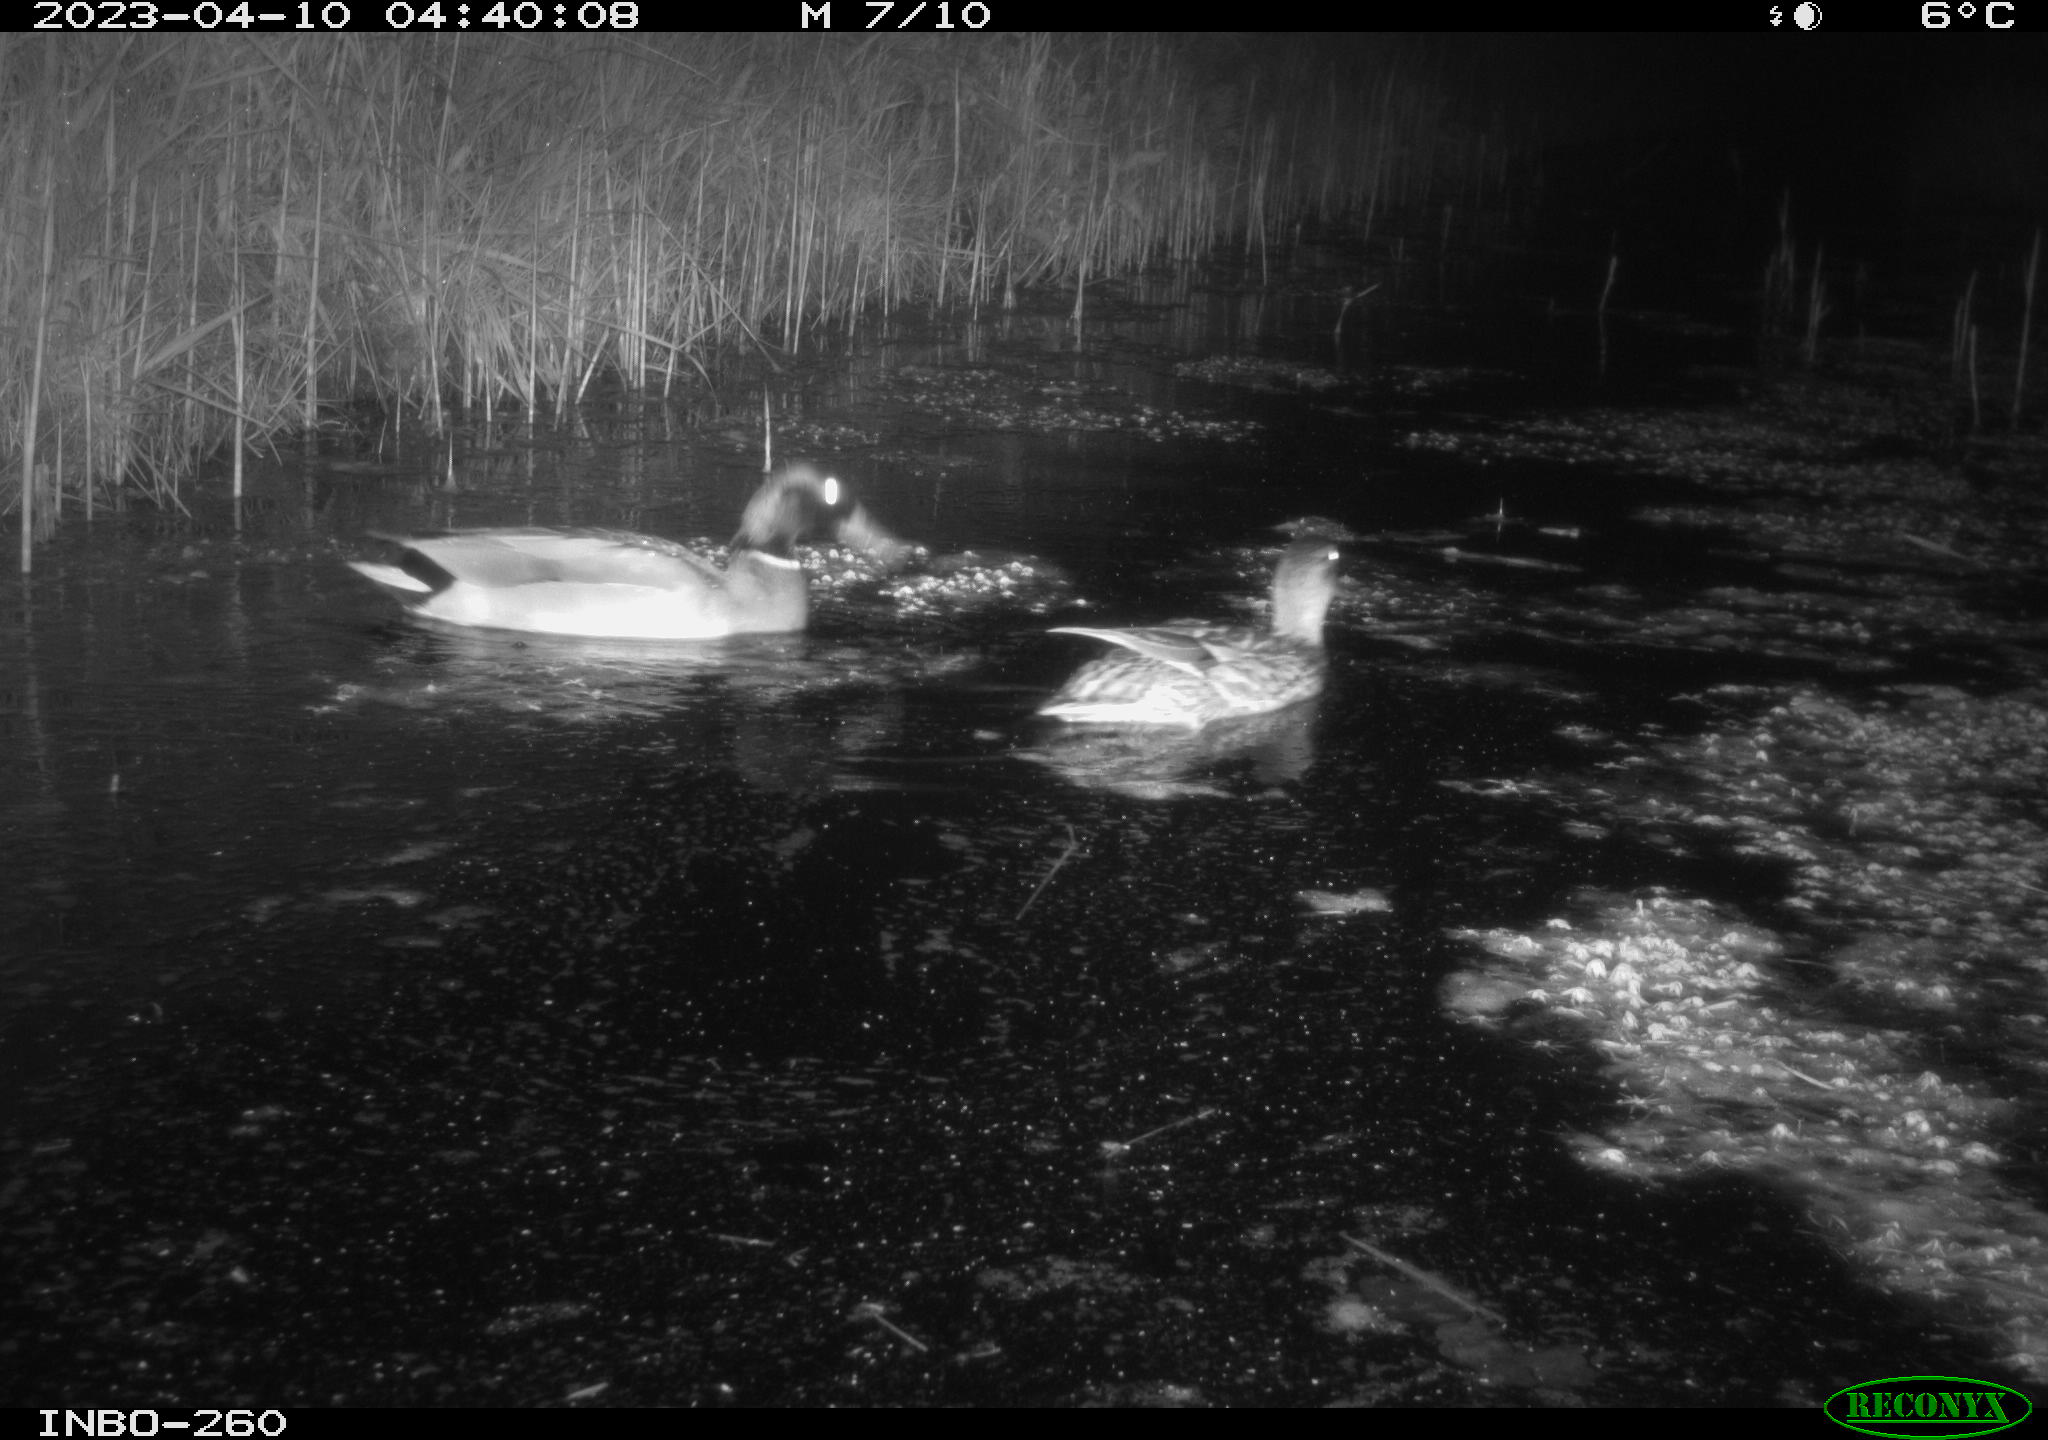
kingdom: Animalia
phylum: Chordata
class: Aves
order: Anseriformes
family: Anatidae
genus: Anas
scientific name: Anas
